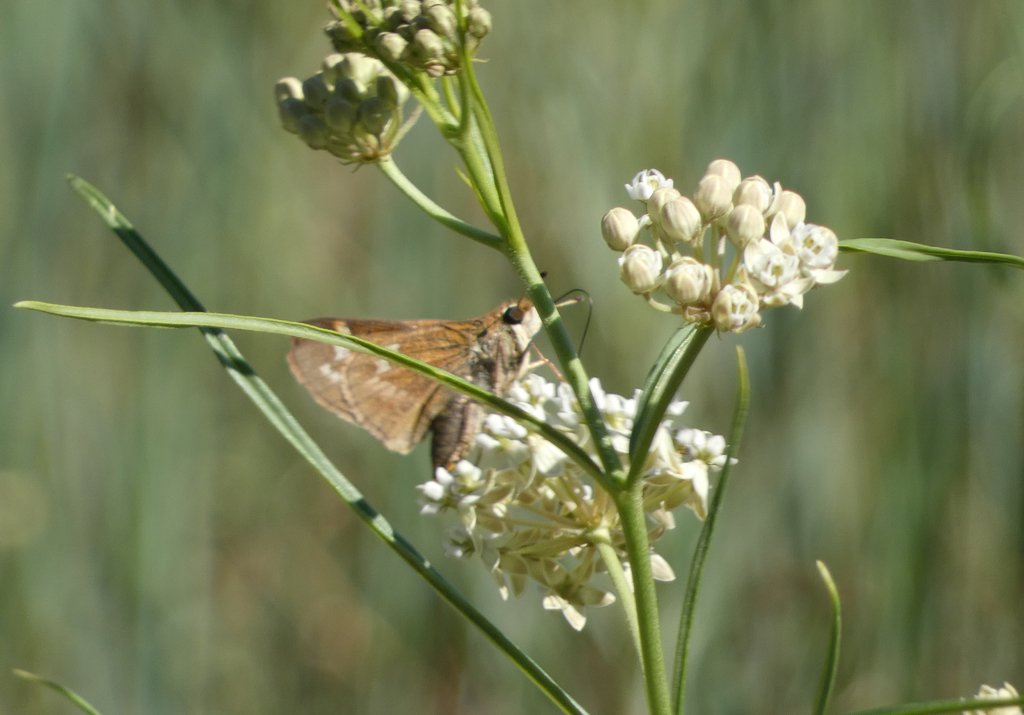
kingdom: Animalia
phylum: Arthropoda
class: Insecta
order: Lepidoptera
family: Hesperiidae
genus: Atalopedes
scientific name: Atalopedes campestris
